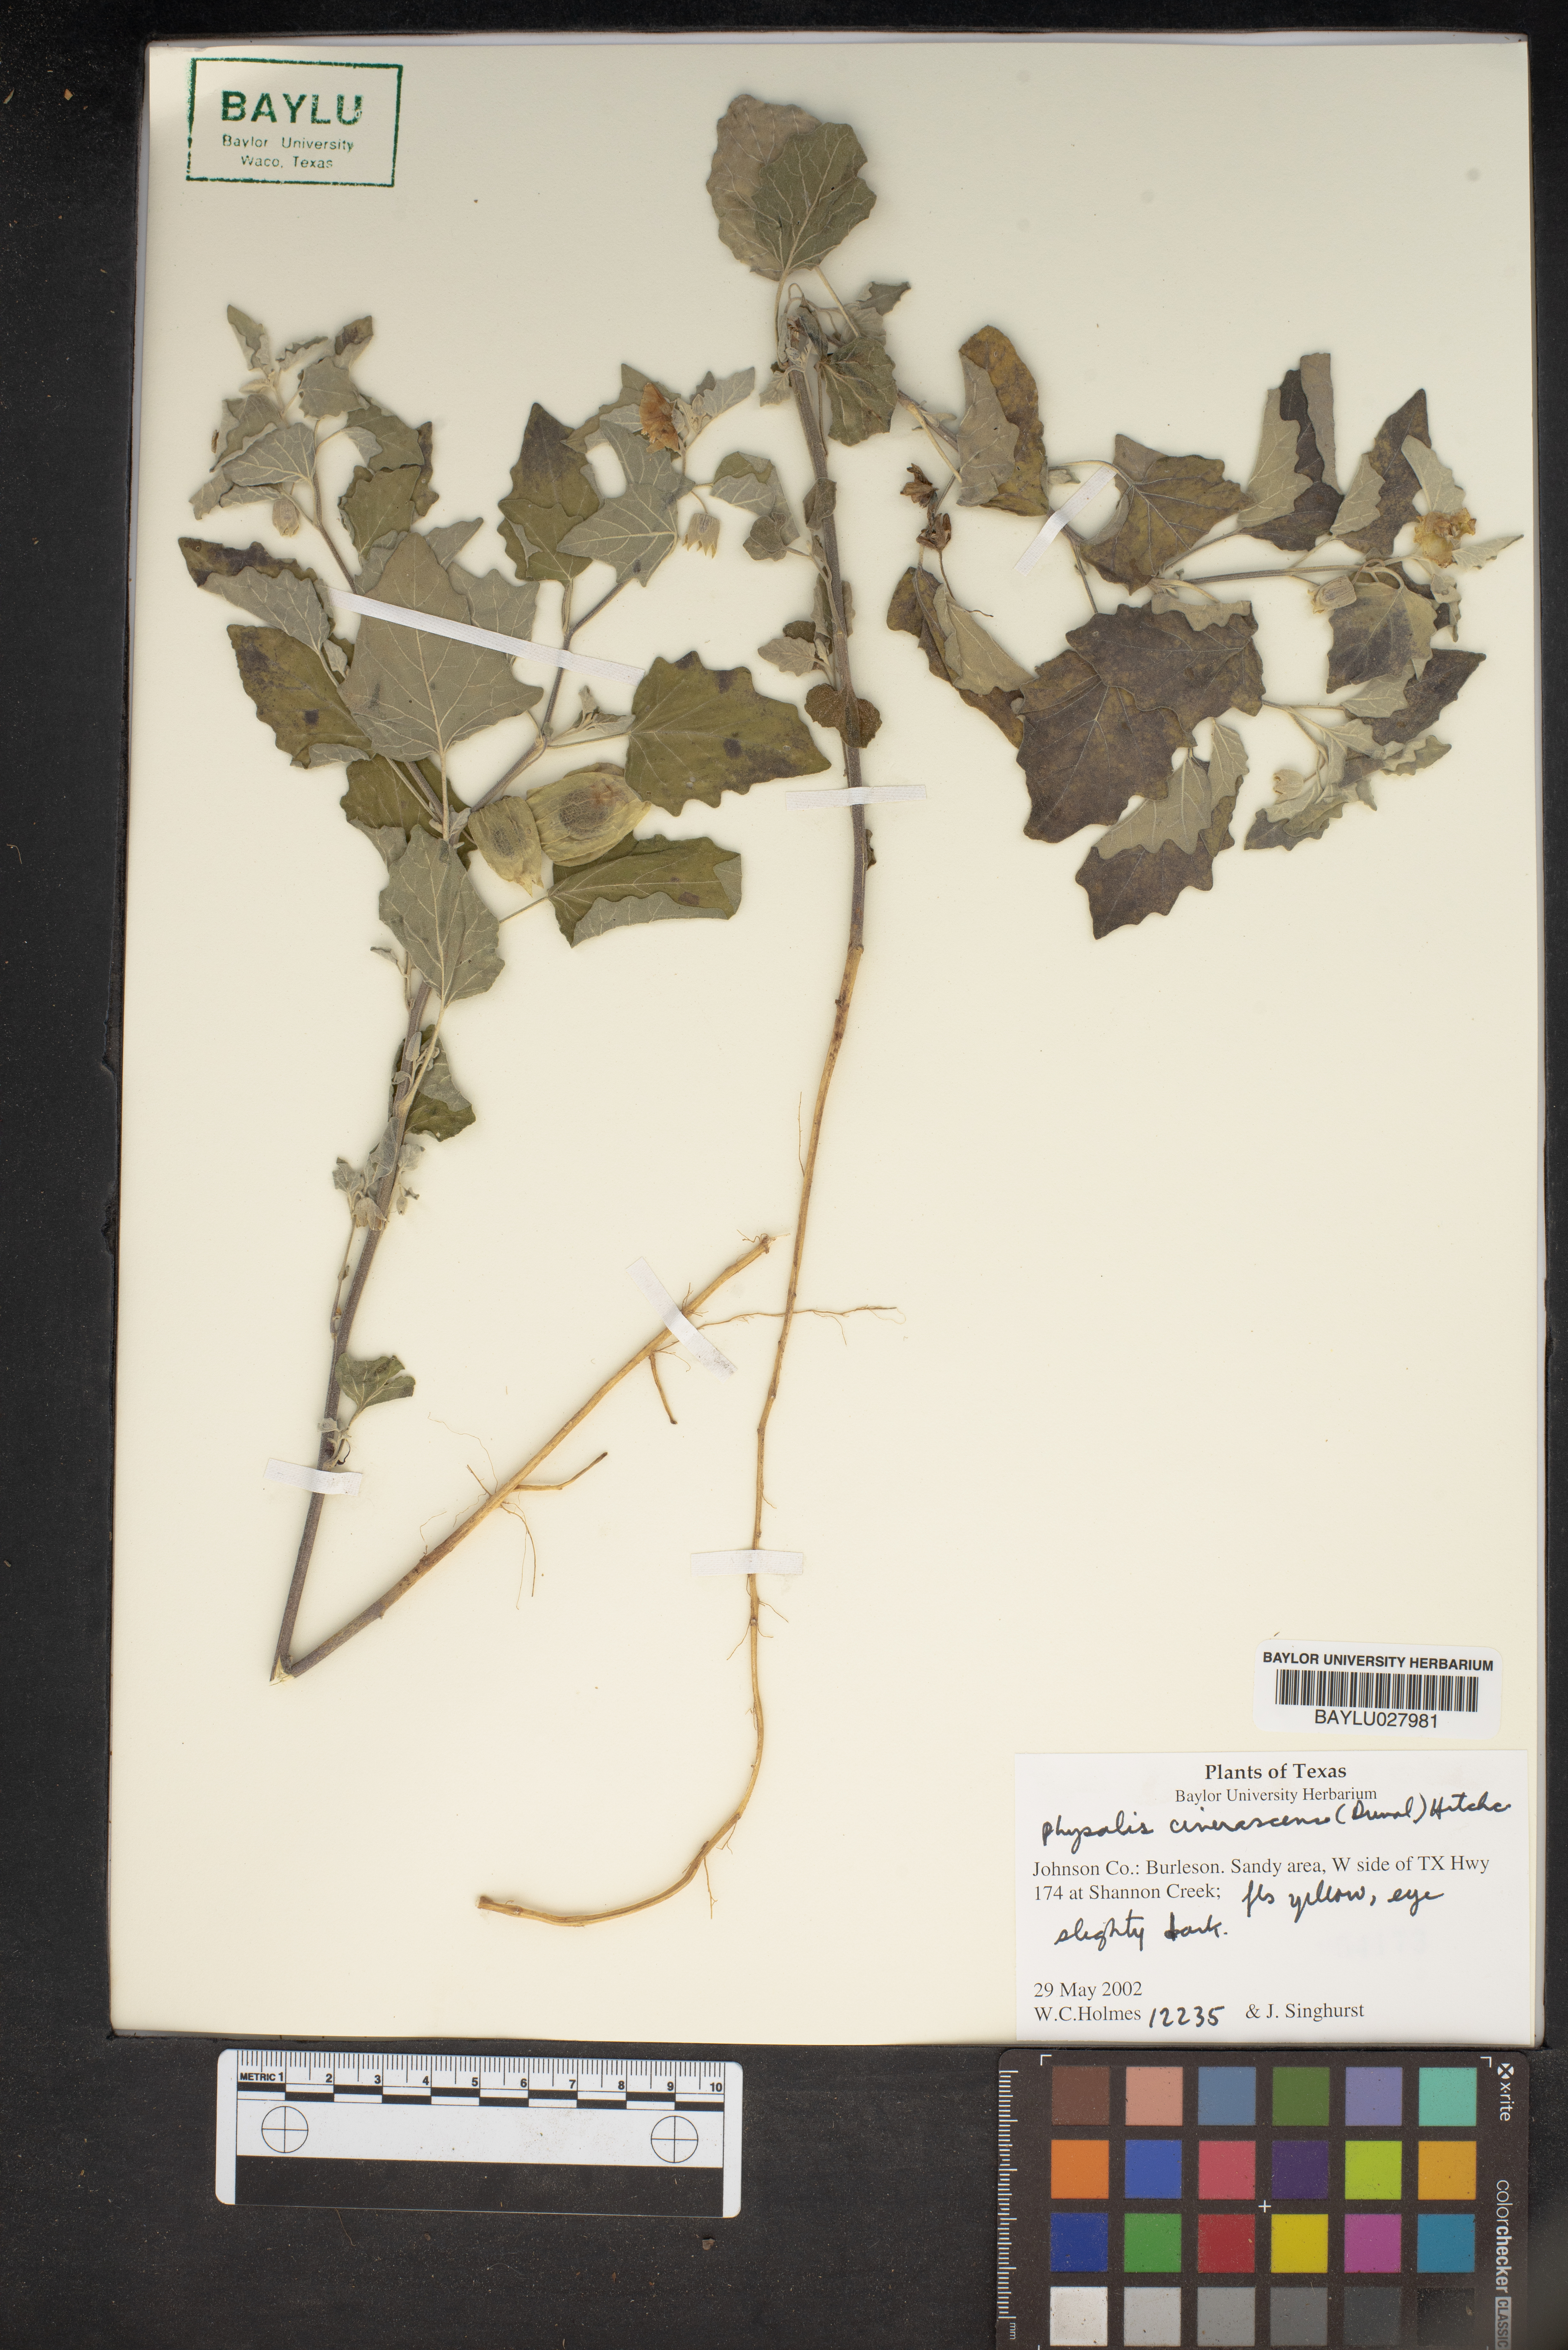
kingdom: Plantae
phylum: Tracheophyta
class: Magnoliopsida
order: Solanales
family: Solanaceae
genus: Physalis
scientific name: Physalis cinerascens
